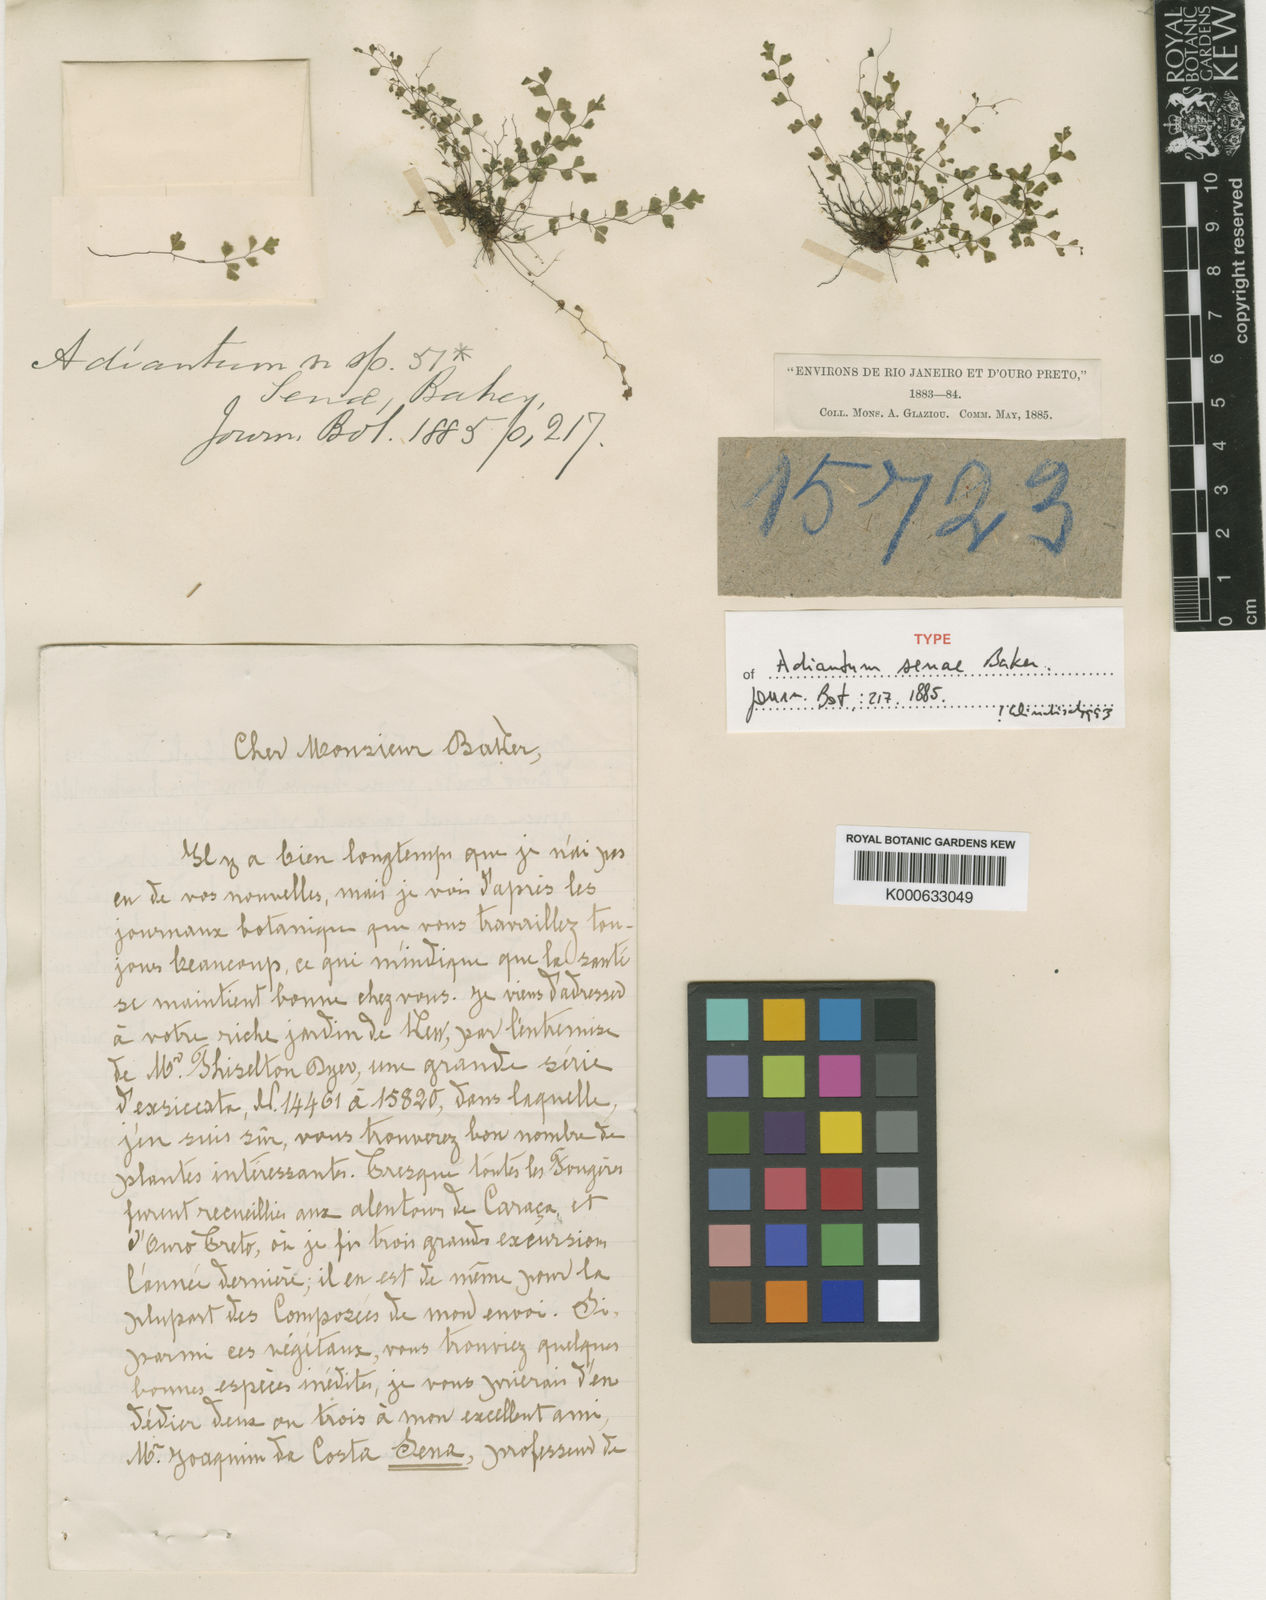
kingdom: Plantae
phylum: Tracheophyta
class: Polypodiopsida
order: Polypodiales
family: Pteridaceae
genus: Adiantopsis
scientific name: Adiantopsis senae
